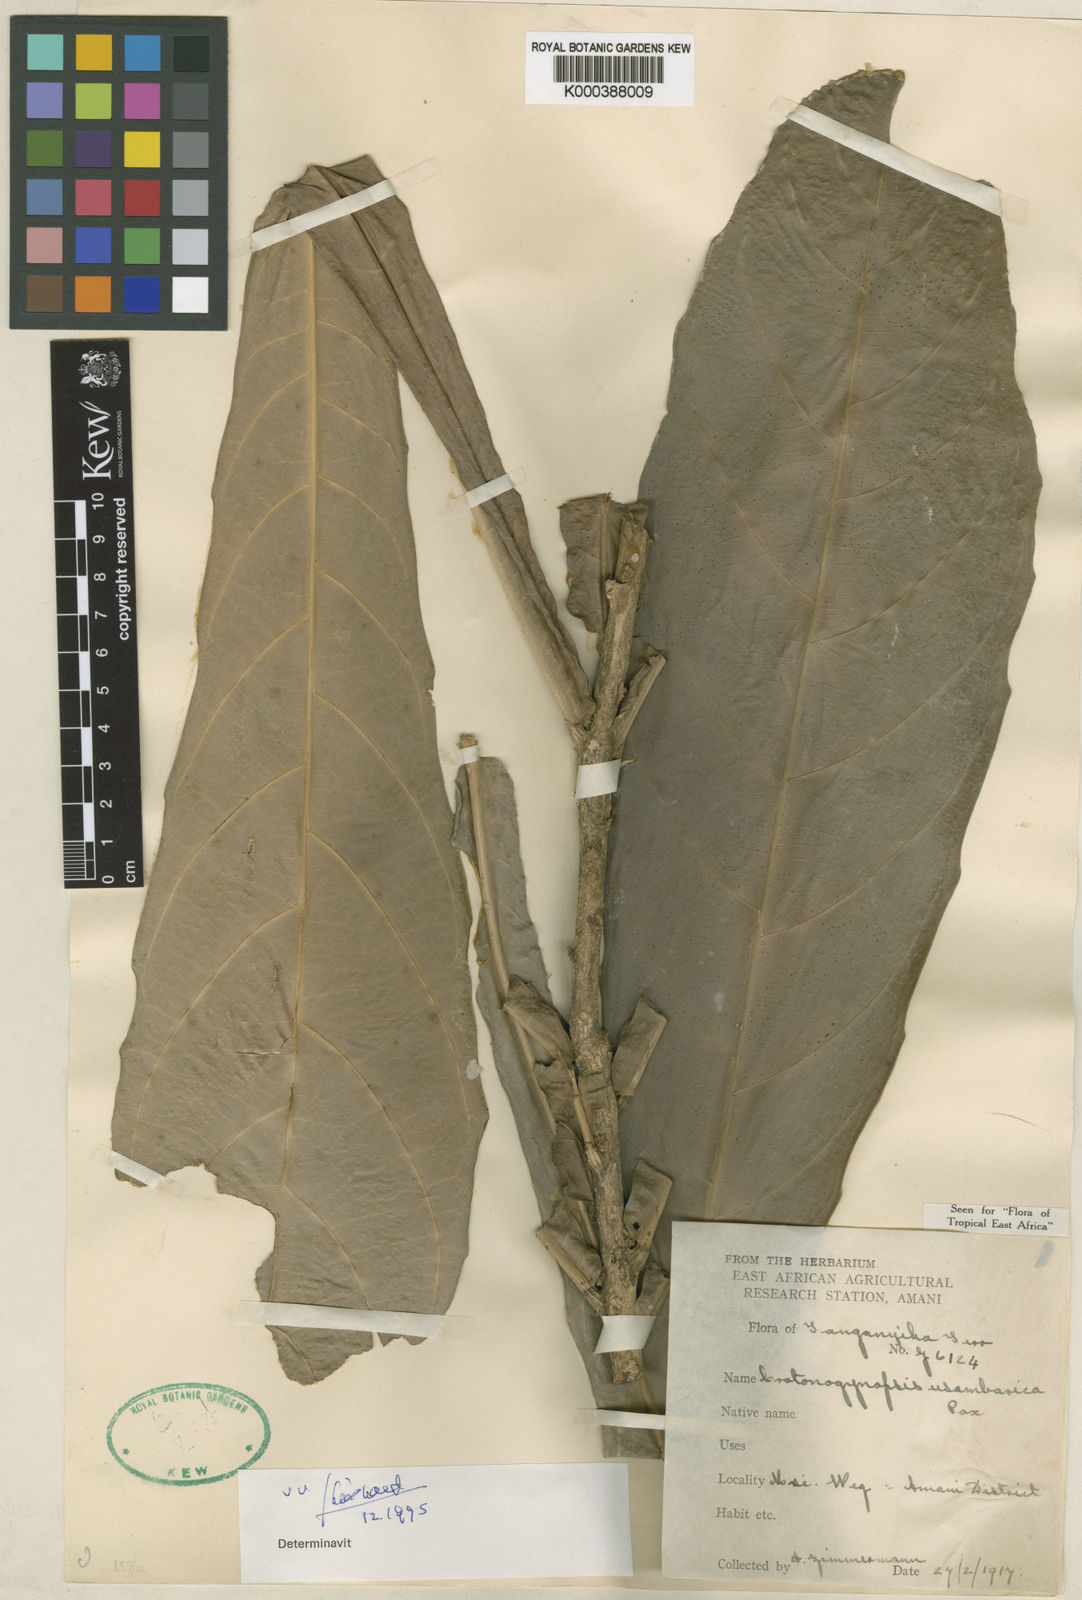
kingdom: Plantae
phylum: Tracheophyta
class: Magnoliopsida
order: Malpighiales
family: Euphorbiaceae
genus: Crotonogynopsis
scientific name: Crotonogynopsis usambarica
